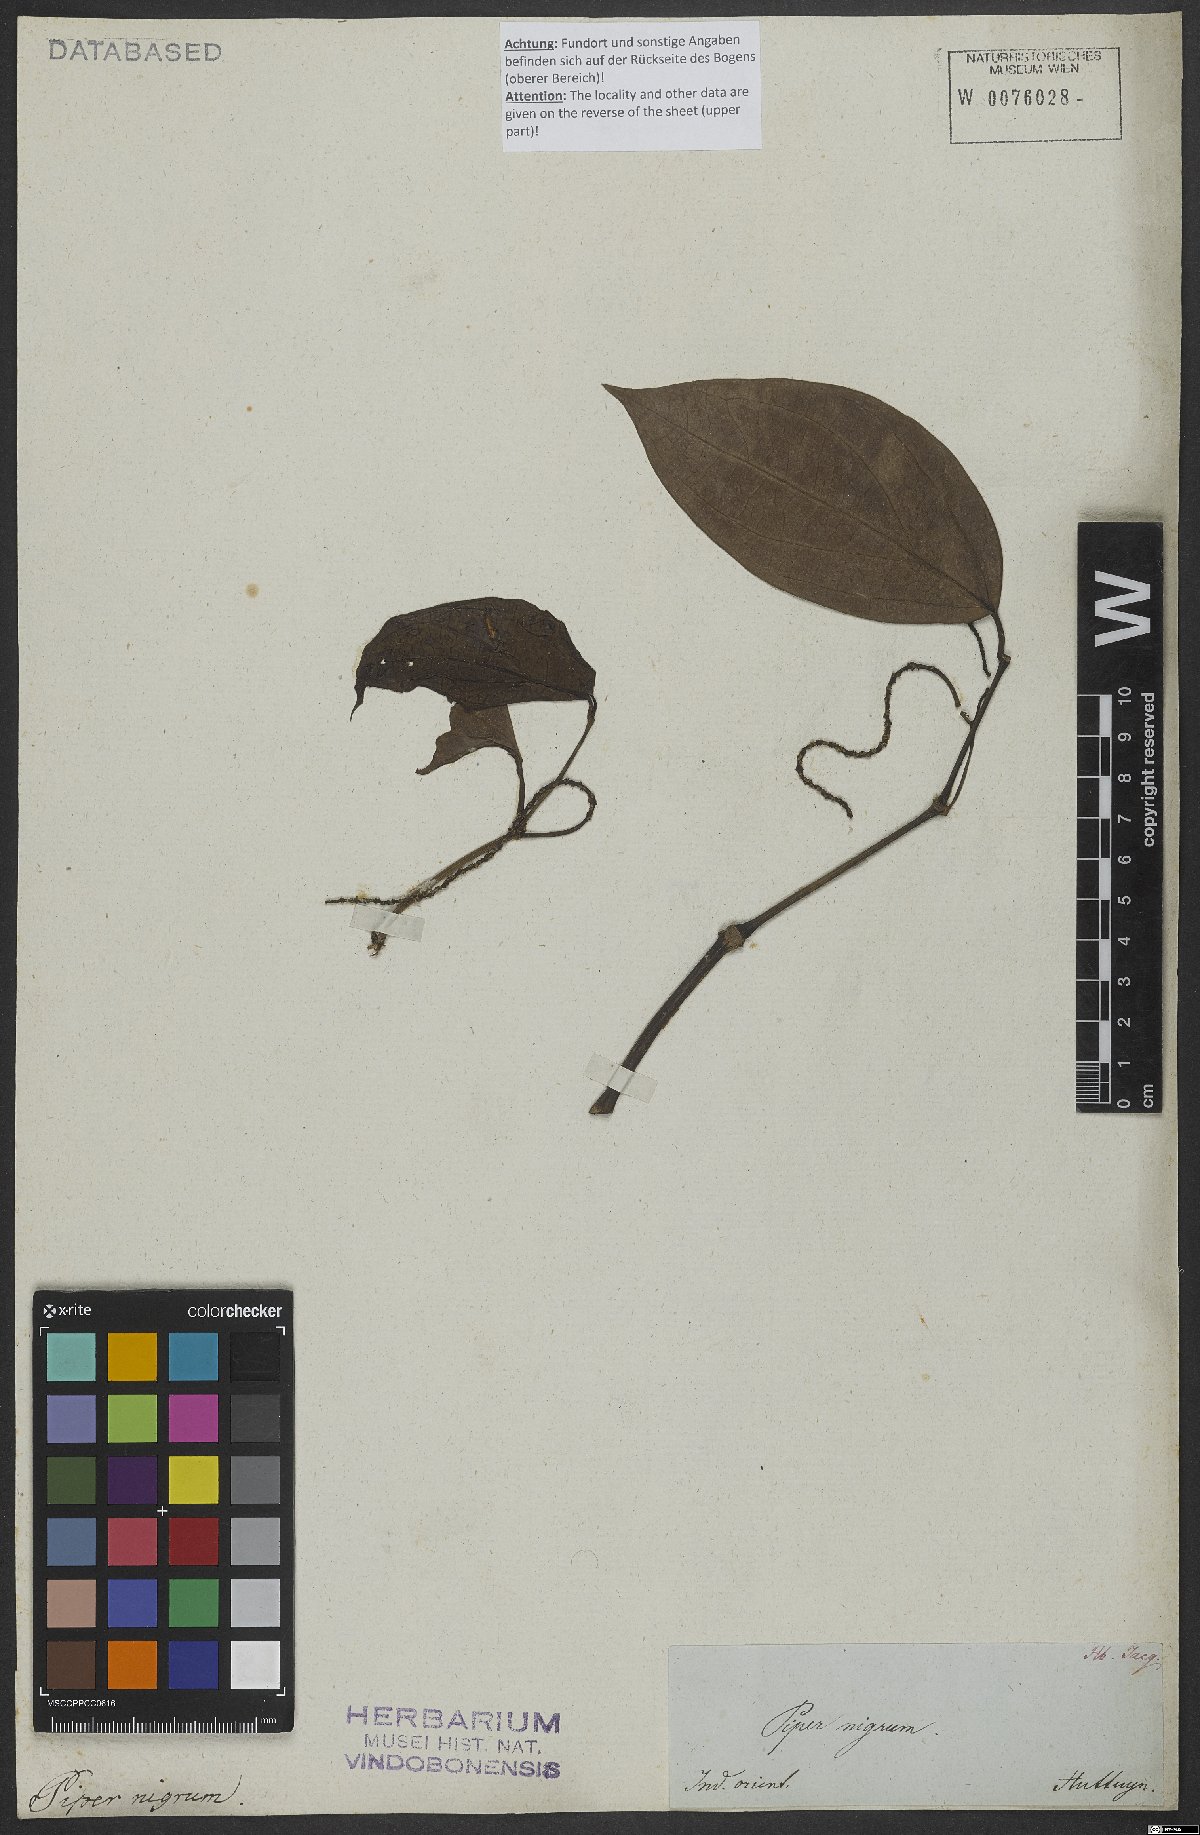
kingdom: Plantae
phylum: Tracheophyta
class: Magnoliopsida
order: Piperales
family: Piperaceae
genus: Piper
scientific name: Piper nigrum
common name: Black pepper
